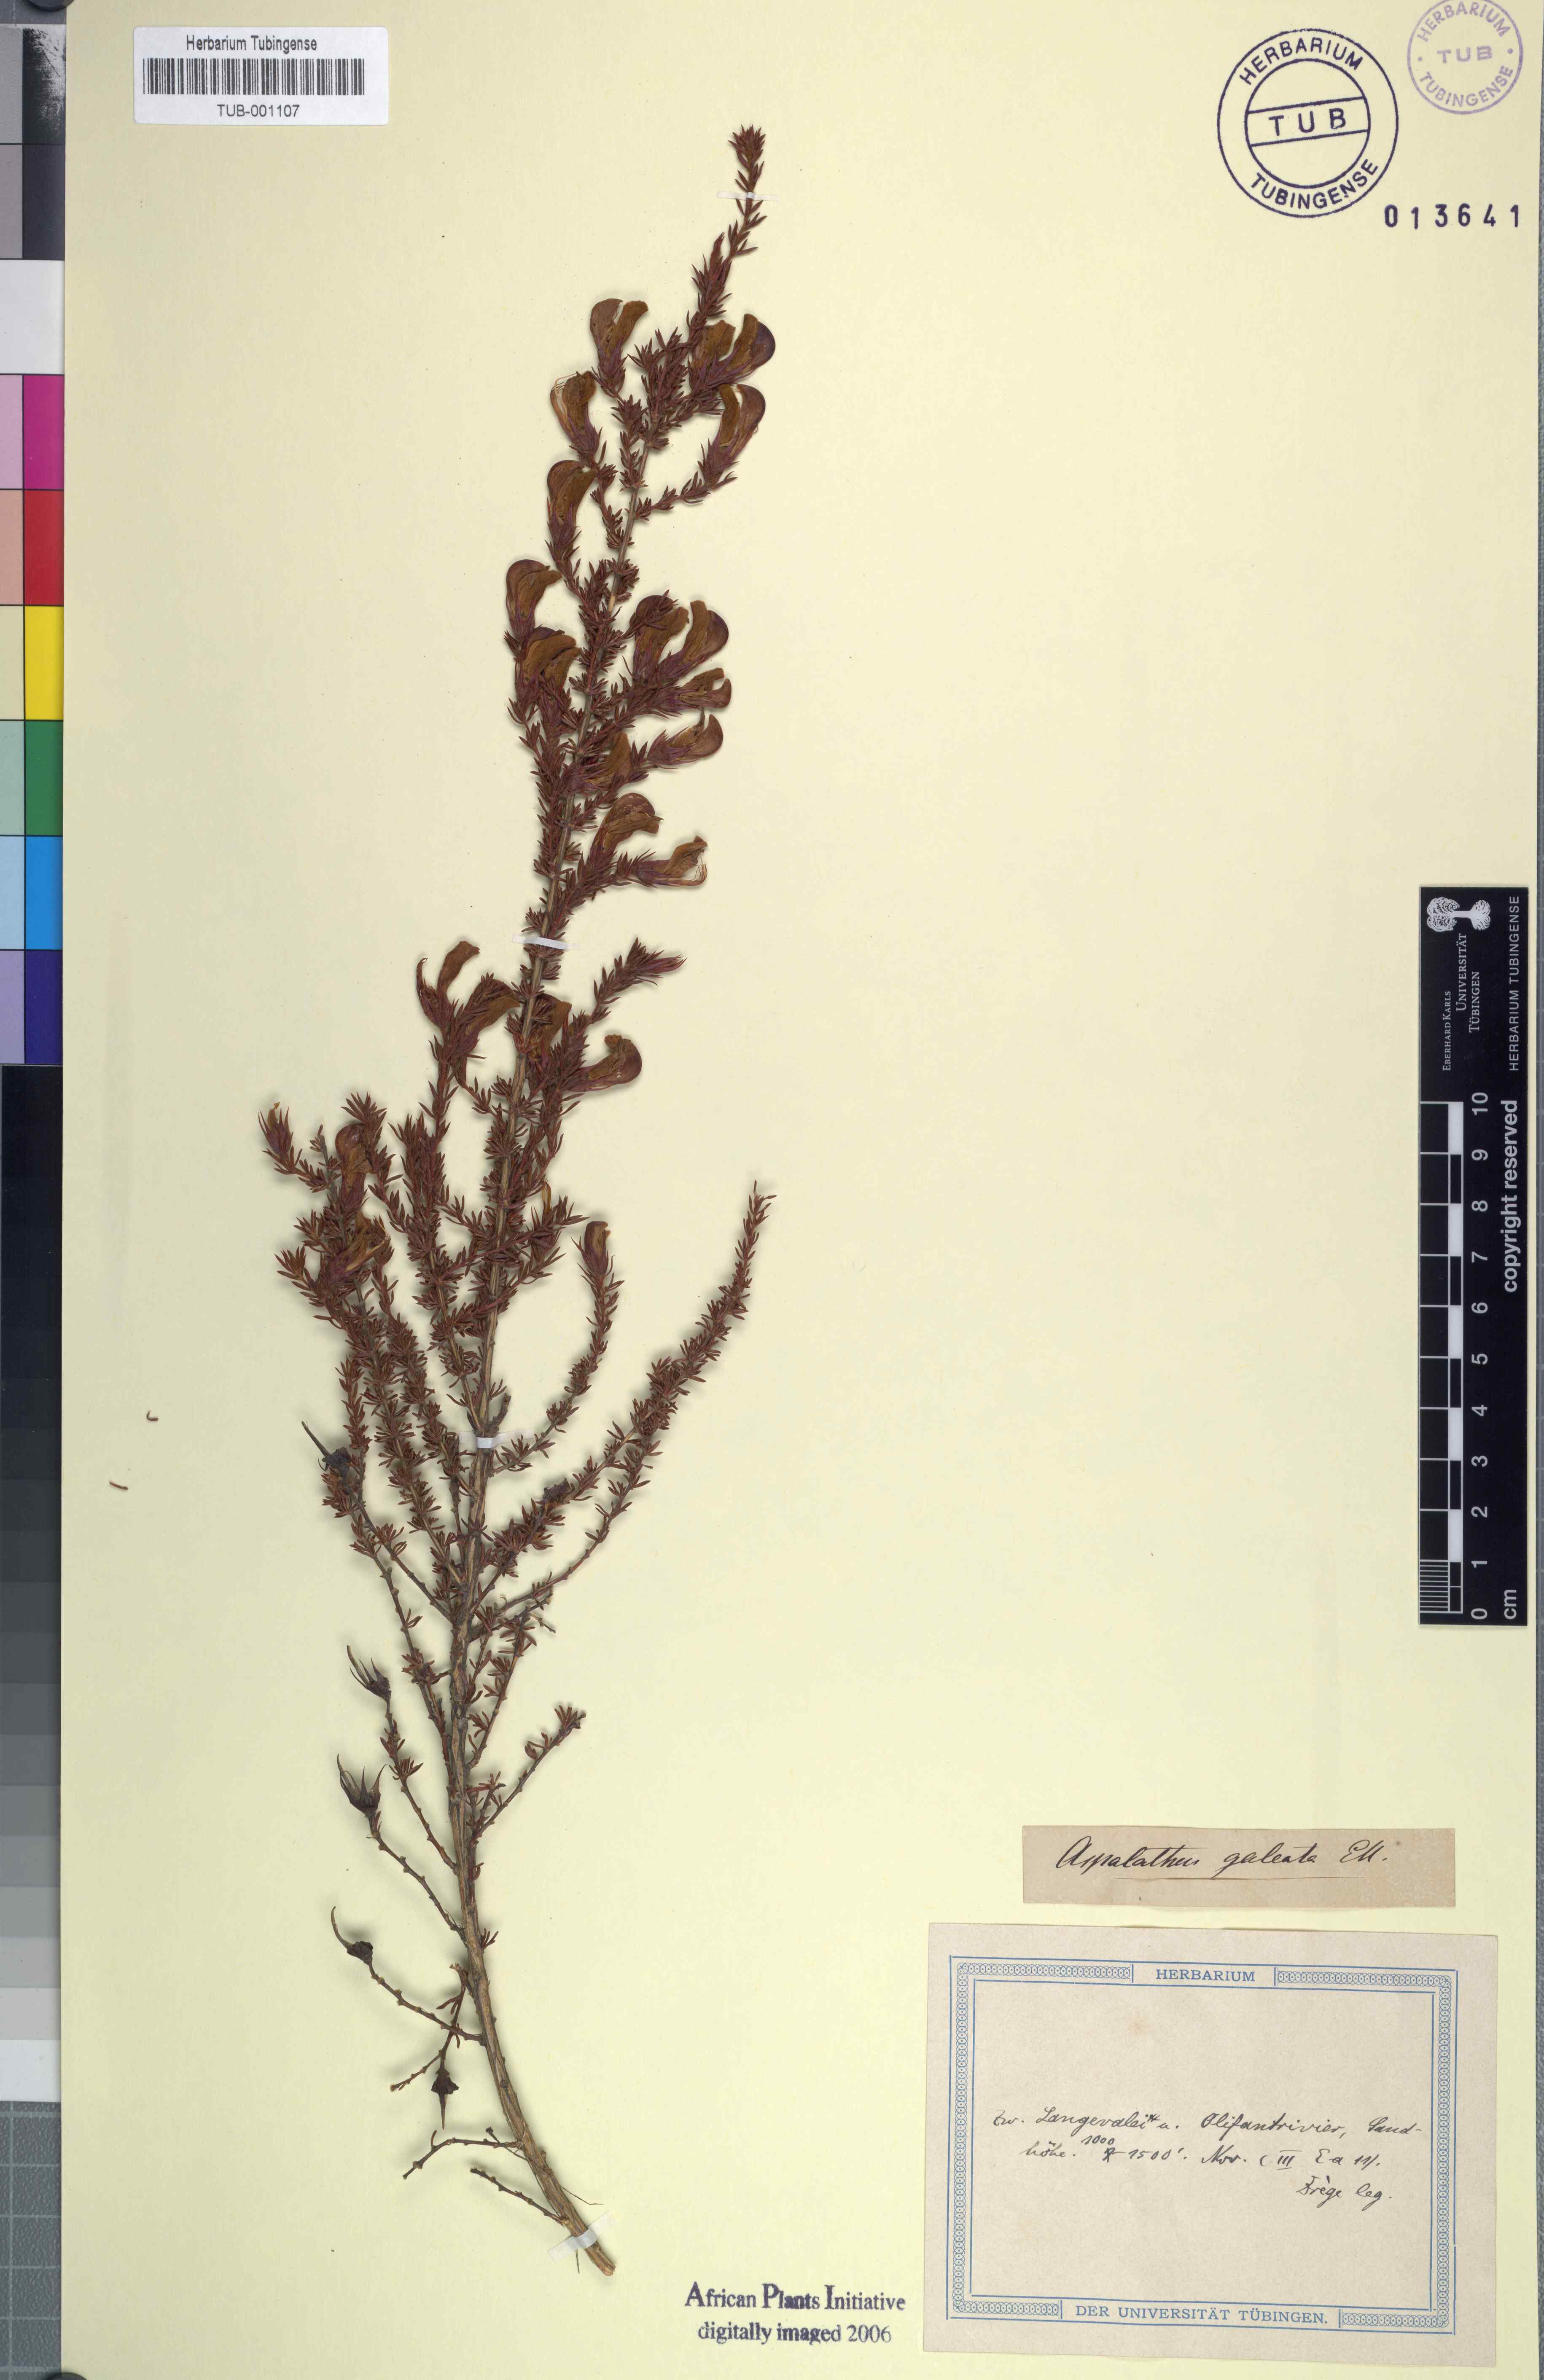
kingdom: Plantae
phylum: Tracheophyta
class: Magnoliopsida
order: Fabales
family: Fabaceae
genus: Aspalathus
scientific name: Aspalathus galeata
